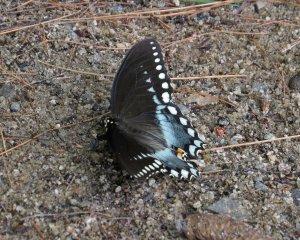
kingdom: Animalia
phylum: Arthropoda
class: Insecta
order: Lepidoptera
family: Papilionidae
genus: Pterourus
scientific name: Pterourus troilus
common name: Spicebush Swallowtail
